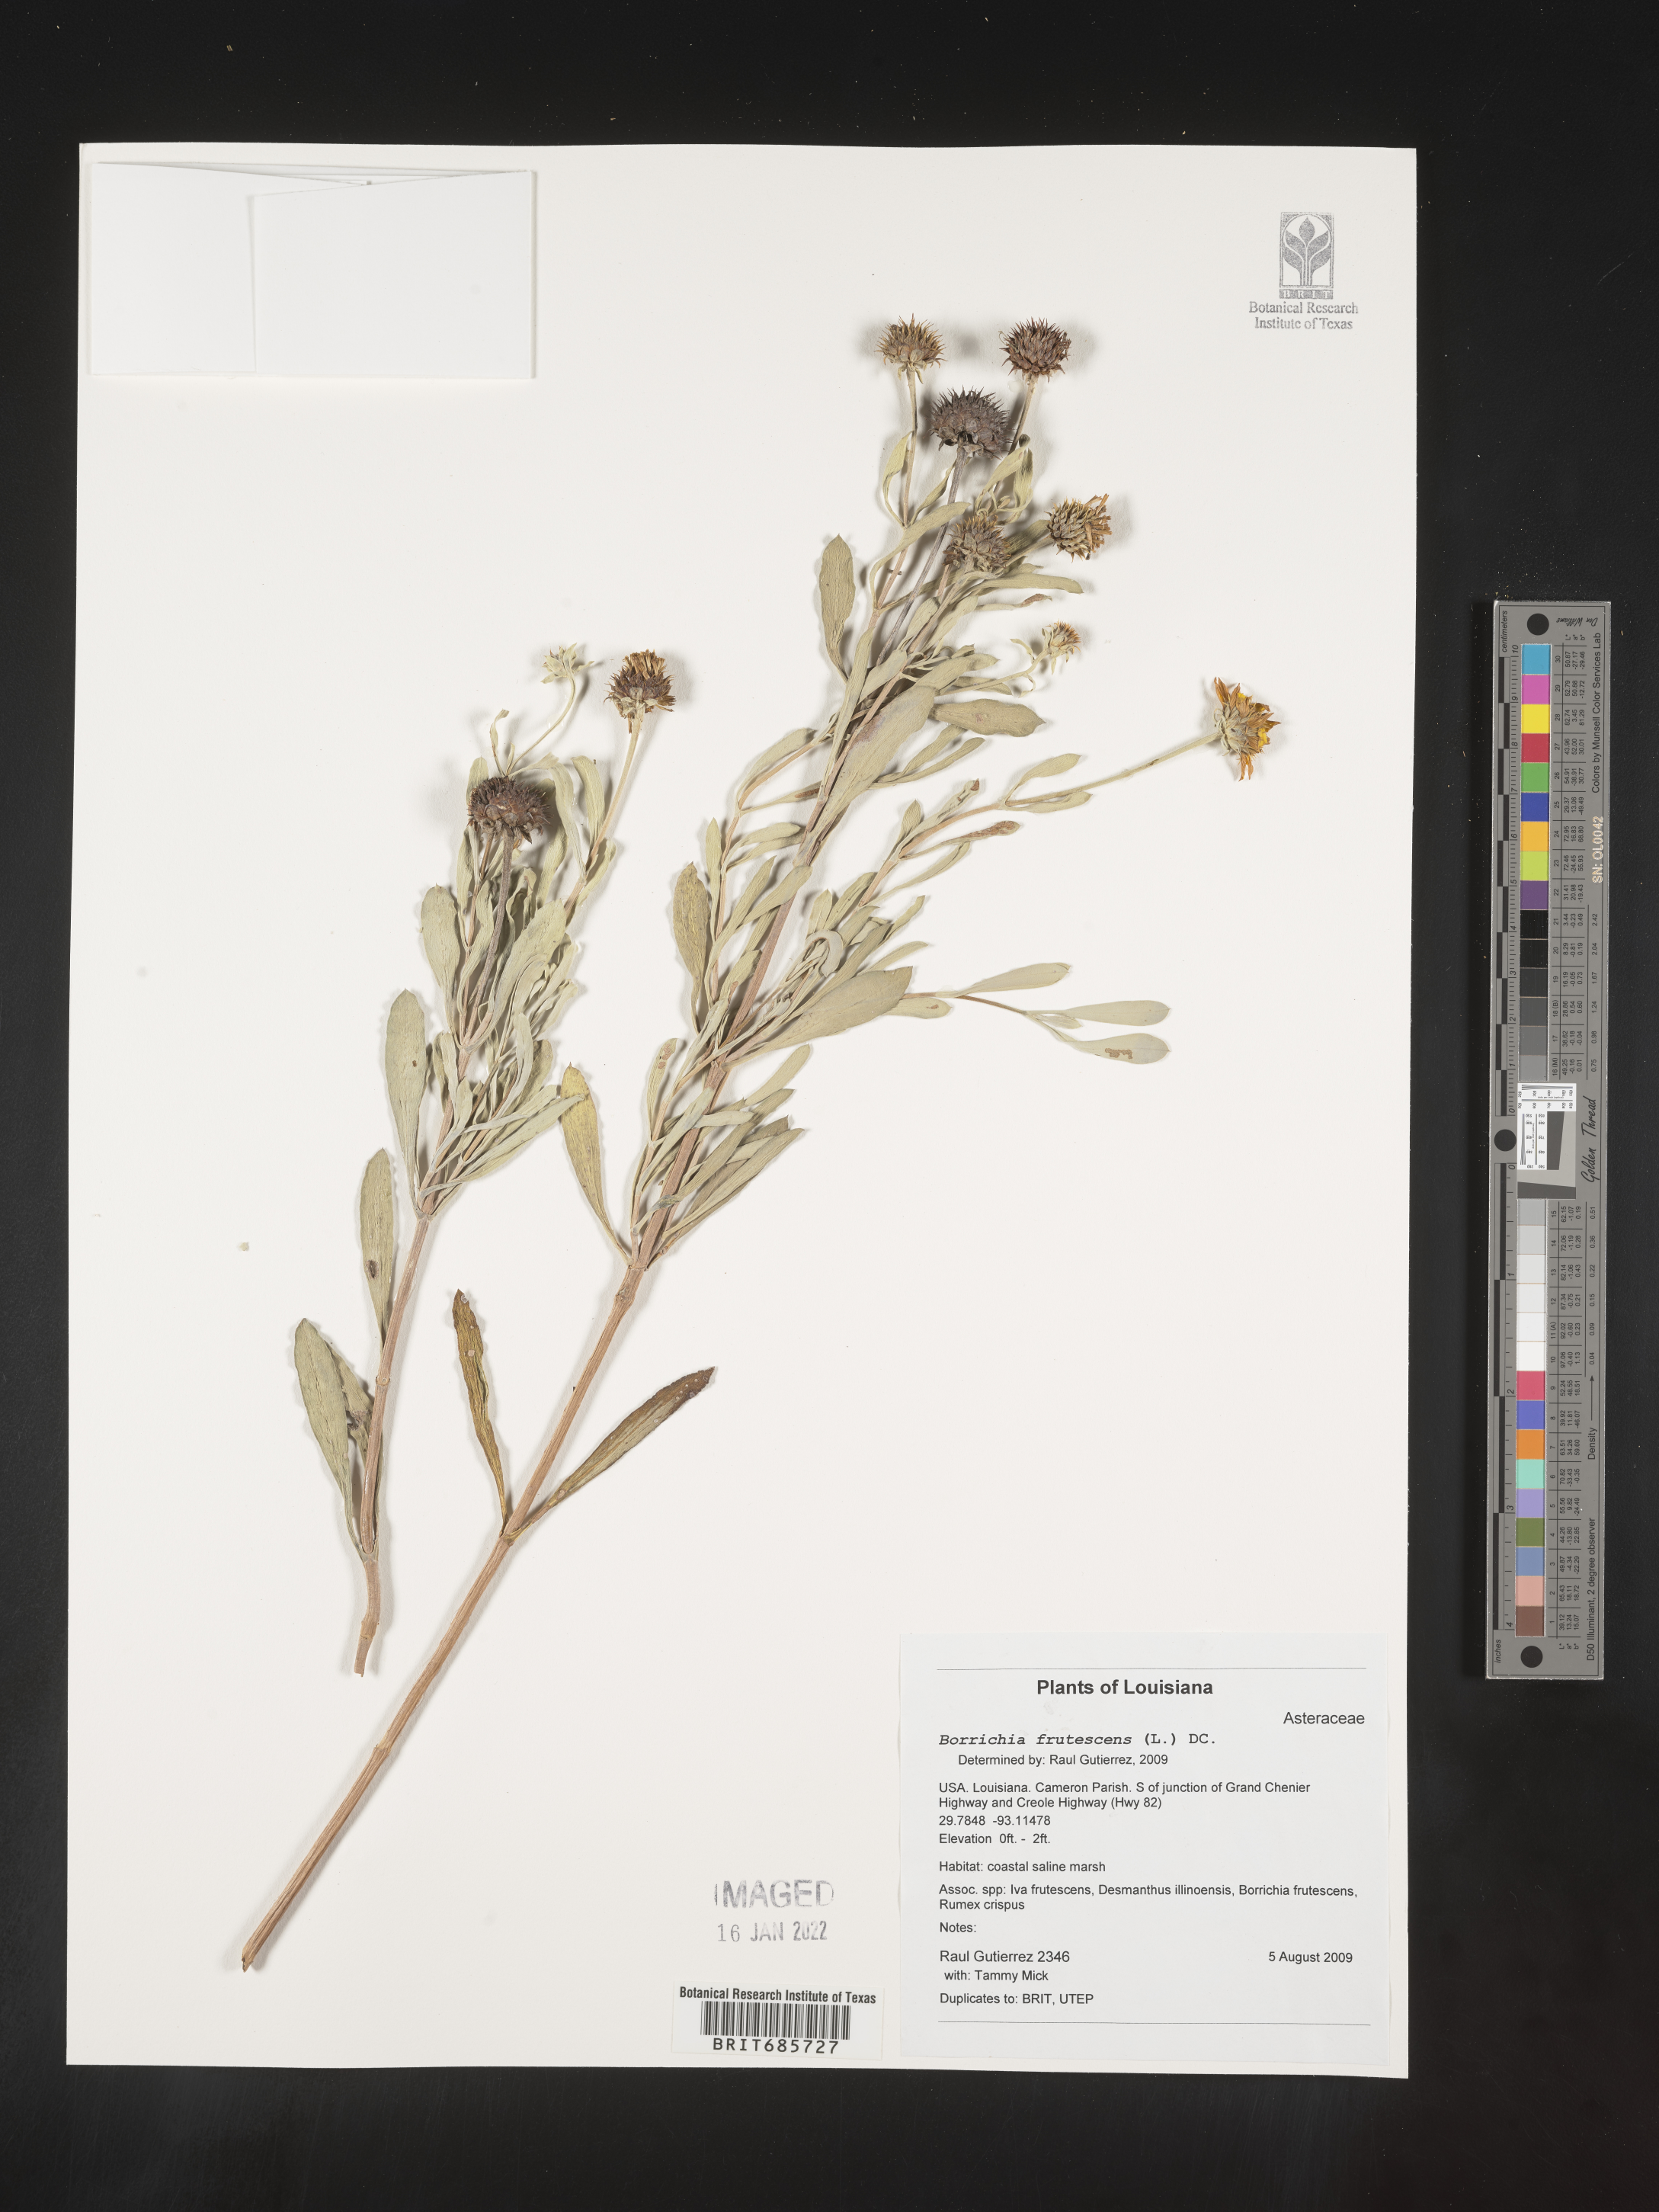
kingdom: Plantae
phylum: Tracheophyta
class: Magnoliopsida
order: Asterales
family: Asteraceae
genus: Borrichia
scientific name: Borrichia frutescens
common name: Sea oxeye
